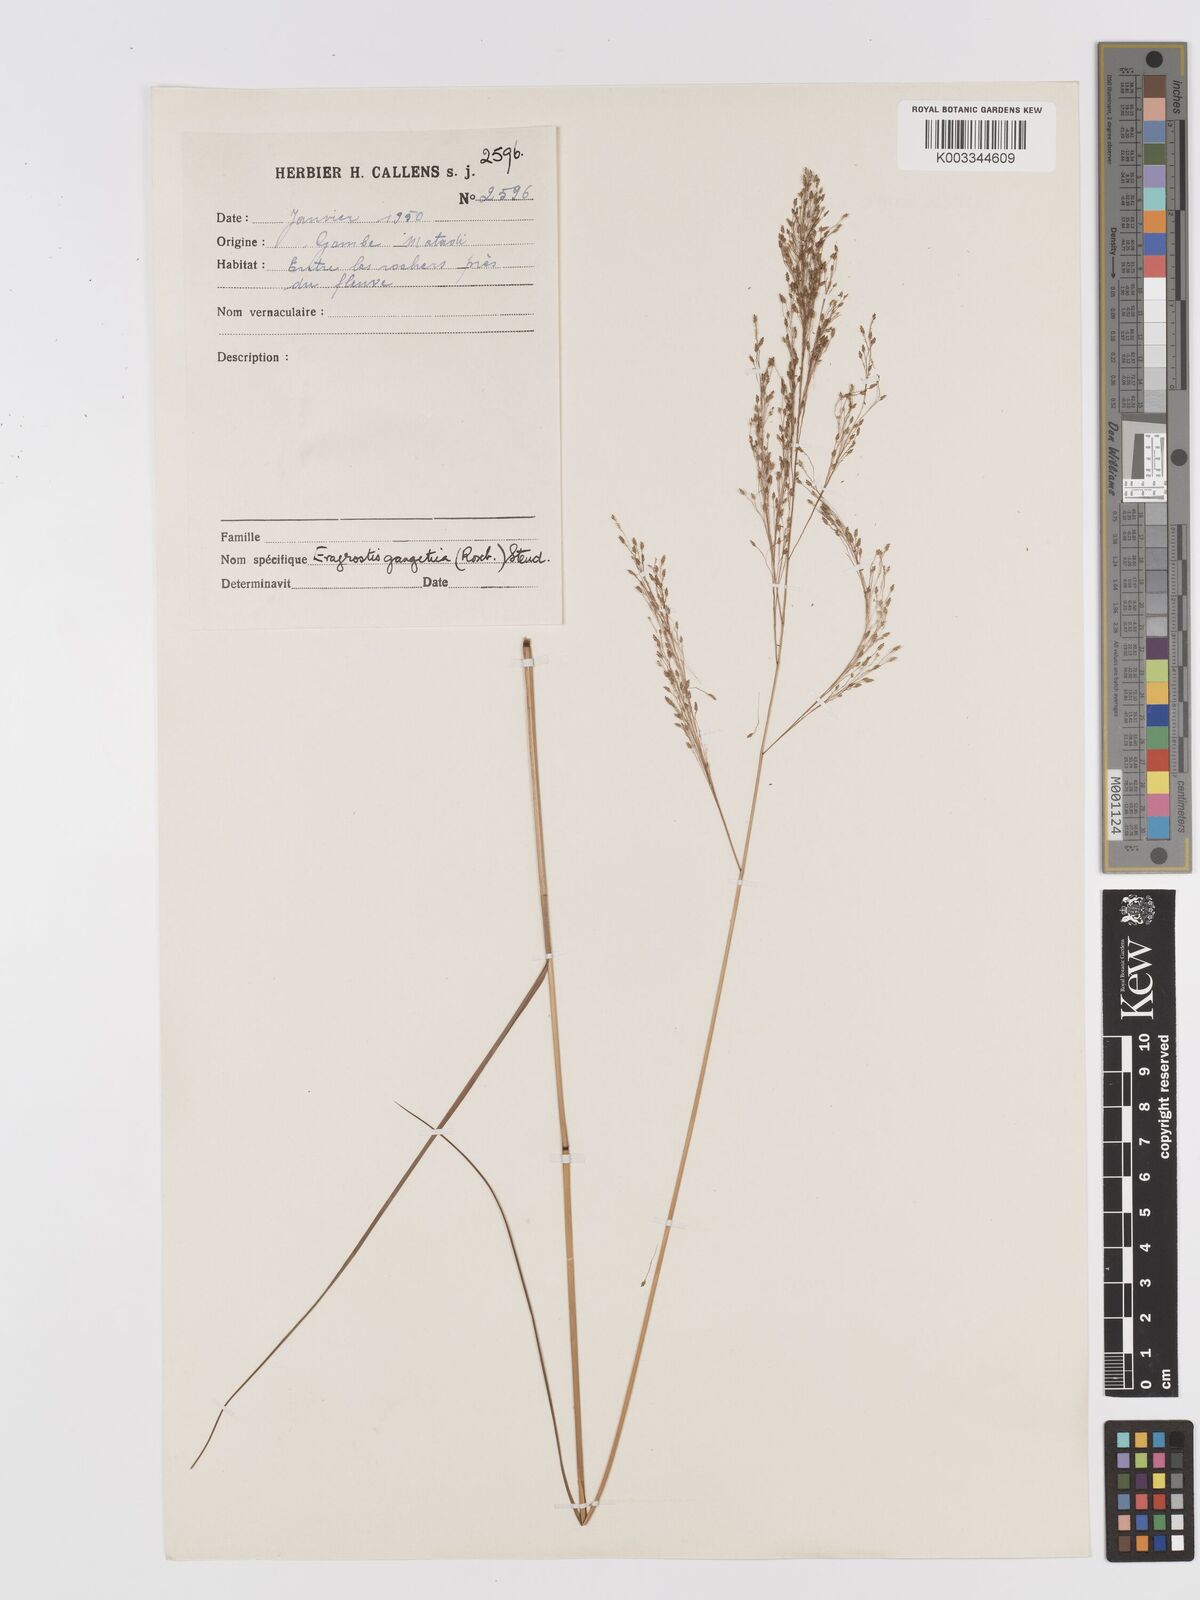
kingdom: Plantae
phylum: Tracheophyta
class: Liliopsida
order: Poales
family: Poaceae
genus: Eragrostis
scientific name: Eragrostis gangetica
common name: Slimflower lovegrass
